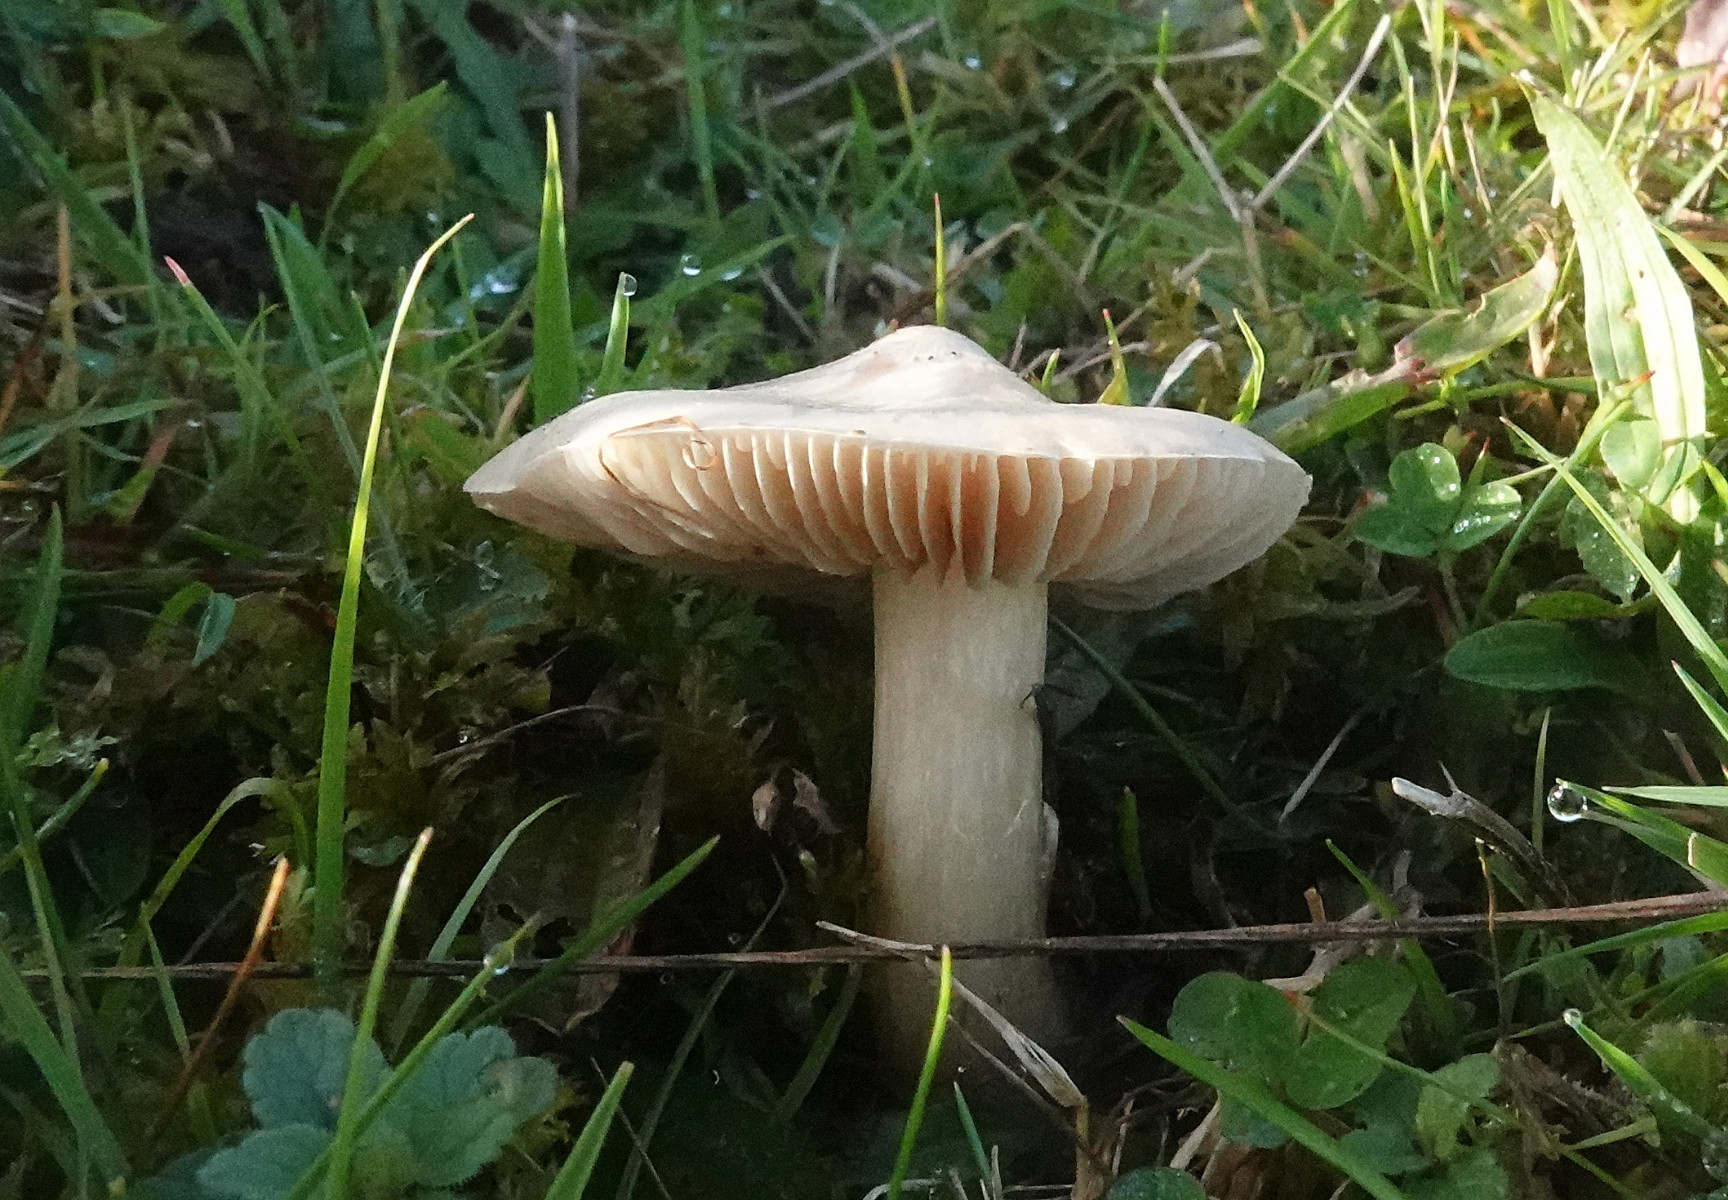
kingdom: Fungi
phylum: Basidiomycota
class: Agaricomycetes
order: Agaricales
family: Entolomataceae
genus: Entoloma
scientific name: Entoloma prunuloides
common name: mel-rødblad
